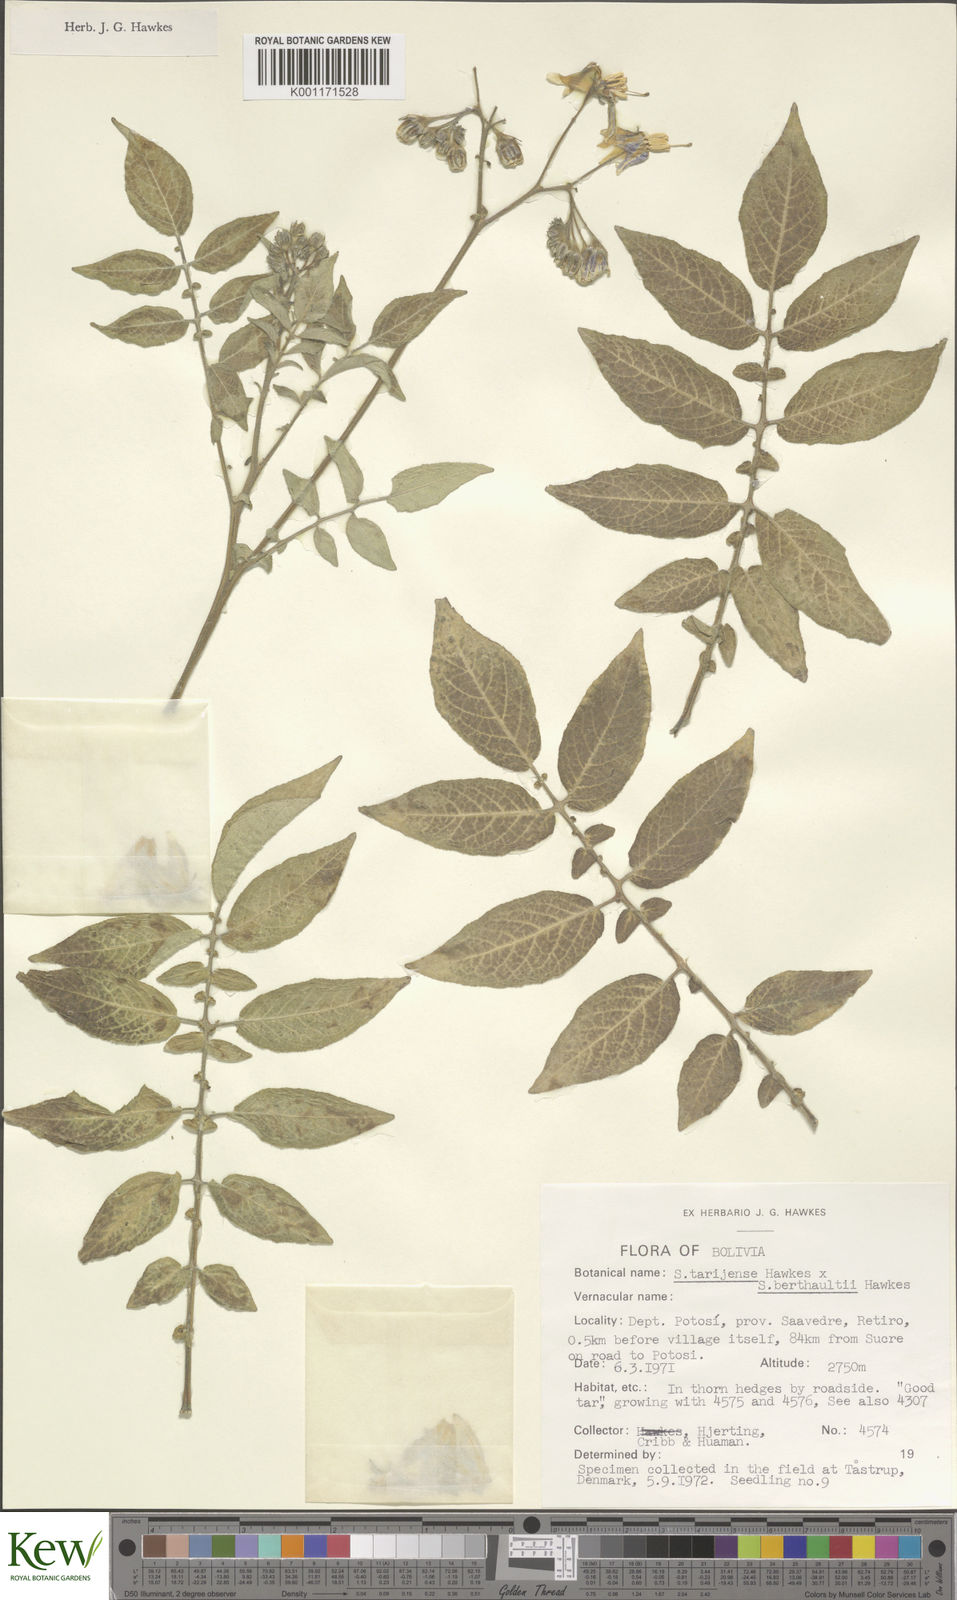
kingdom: Plantae
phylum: Tracheophyta
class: Magnoliopsida
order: Solanales
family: Solanaceae
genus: Solanum
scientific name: Solanum tarijense
